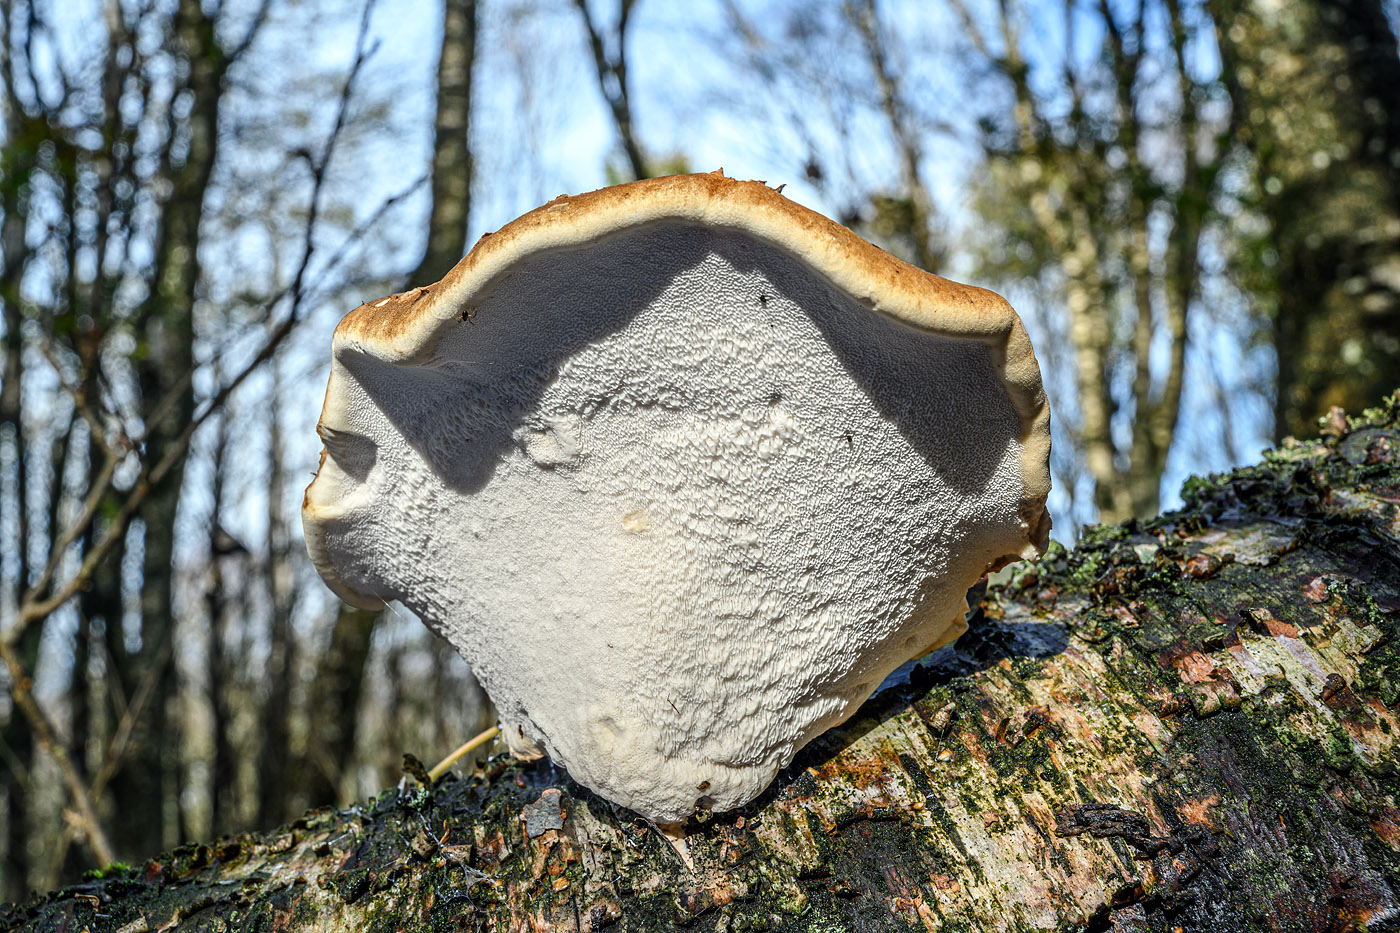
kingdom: Fungi
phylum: Basidiomycota
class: Agaricomycetes
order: Polyporales
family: Fomitopsidaceae
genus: Fomitopsis
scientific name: Fomitopsis betulina
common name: birkeporesvamp
